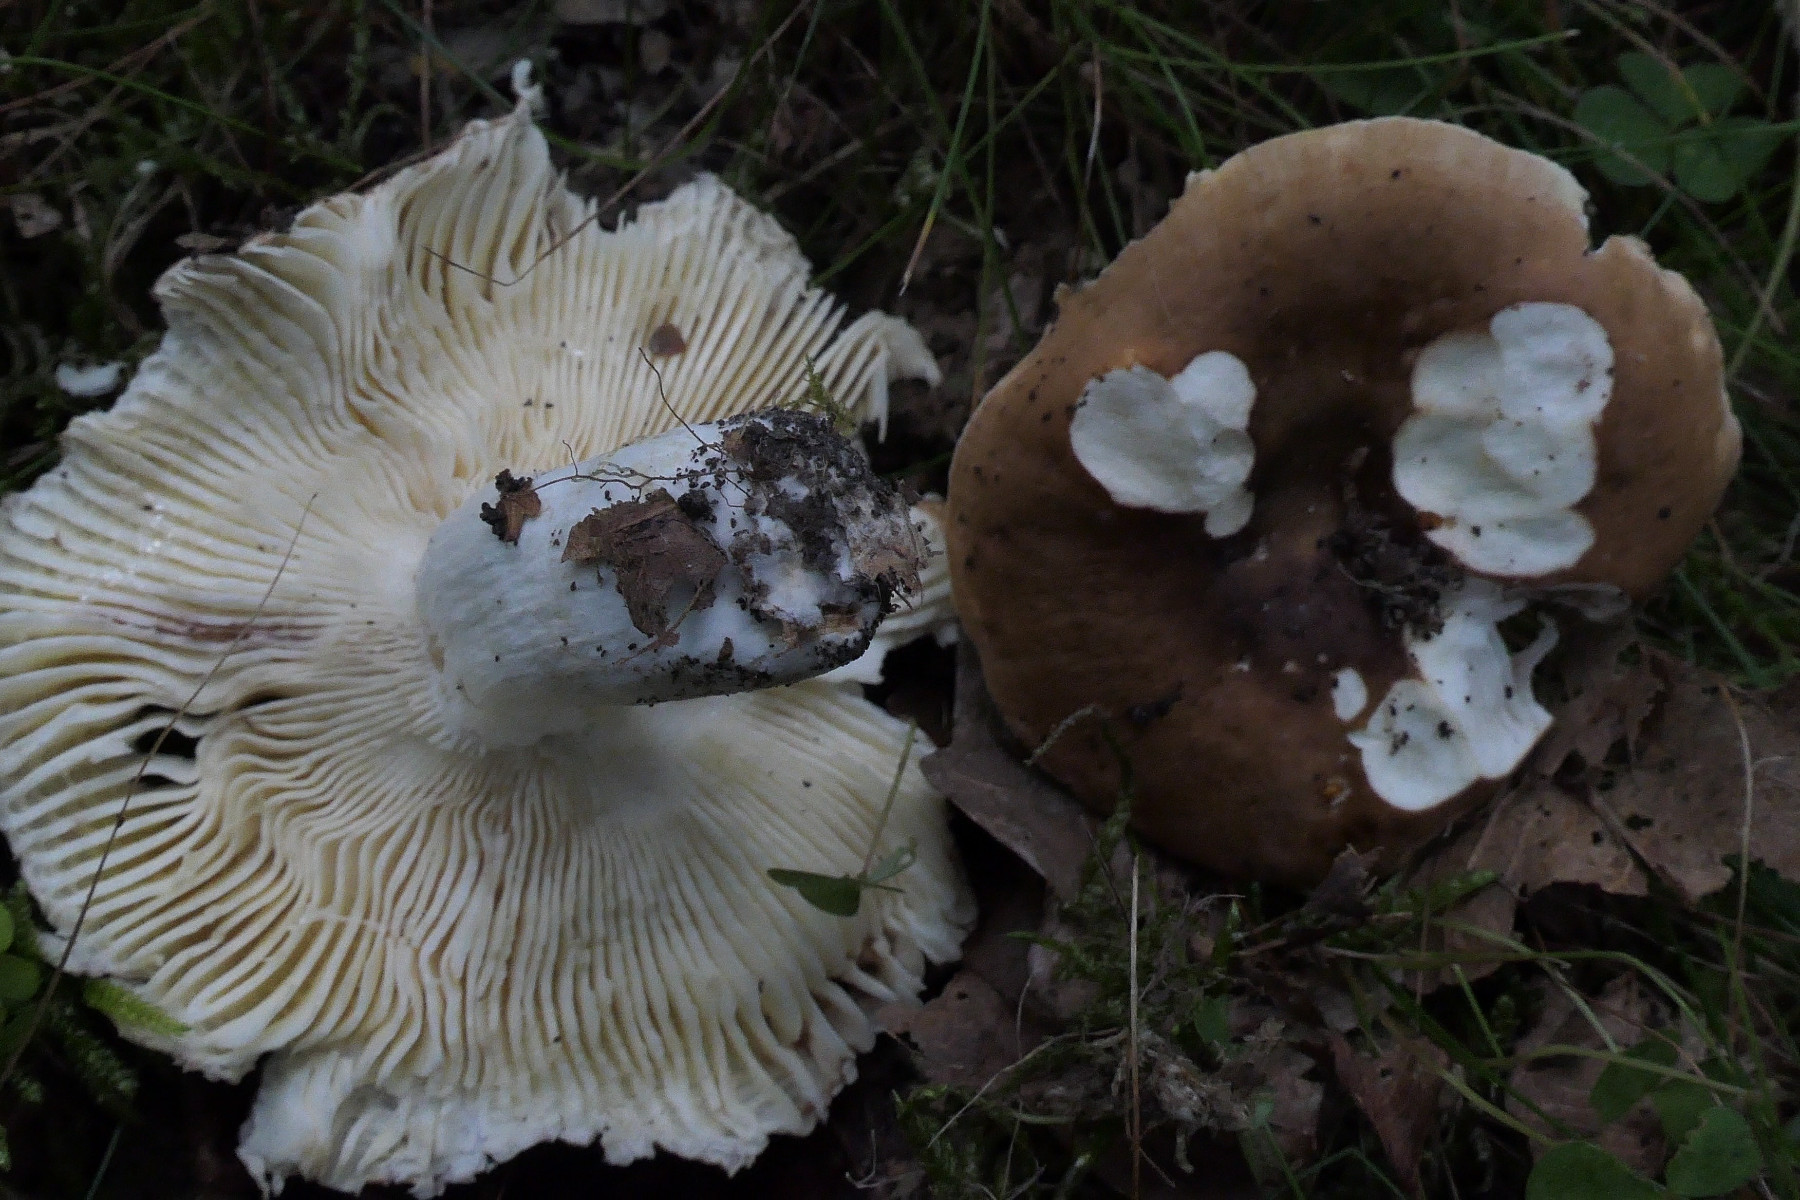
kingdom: Fungi
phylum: Basidiomycota
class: Agaricomycetes
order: Russulales
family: Russulaceae
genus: Russula
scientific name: Russula graveolens
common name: bugtet skørhat
